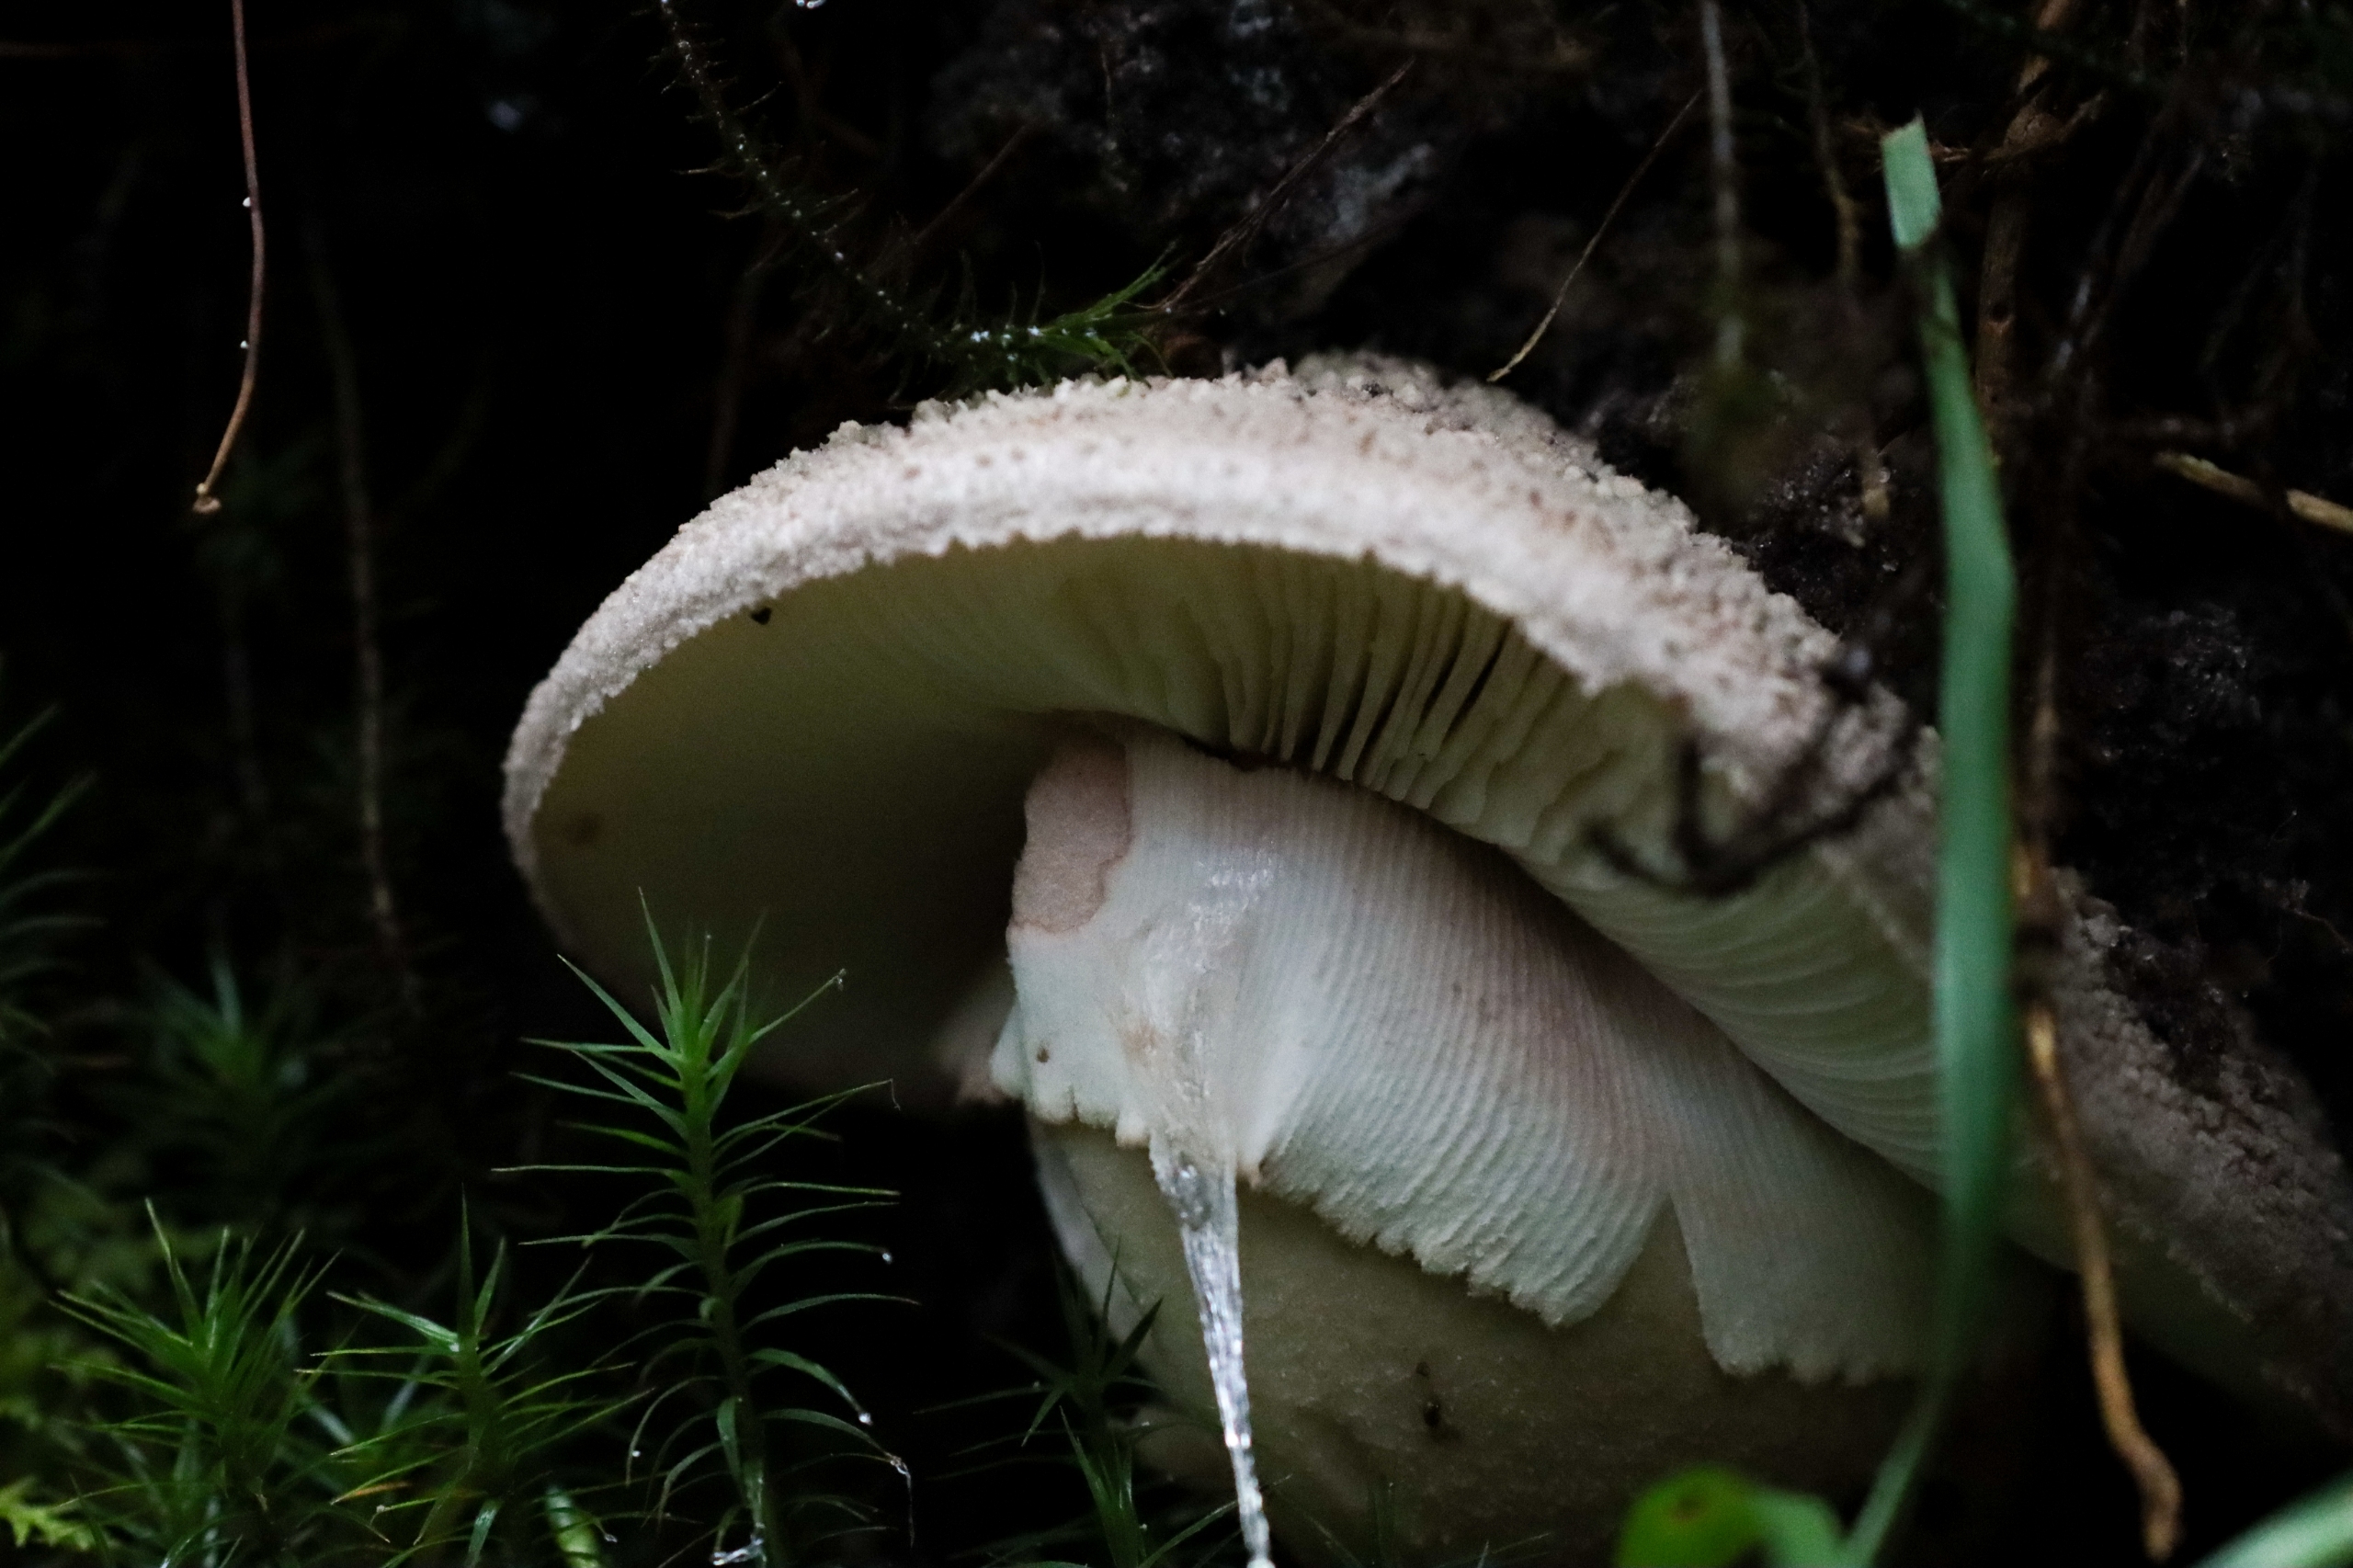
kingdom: Fungi
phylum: Basidiomycota
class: Agaricomycetes
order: Agaricales
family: Amanitaceae
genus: Amanita
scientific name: Amanita rubescens
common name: Rødmende fluesvamp
